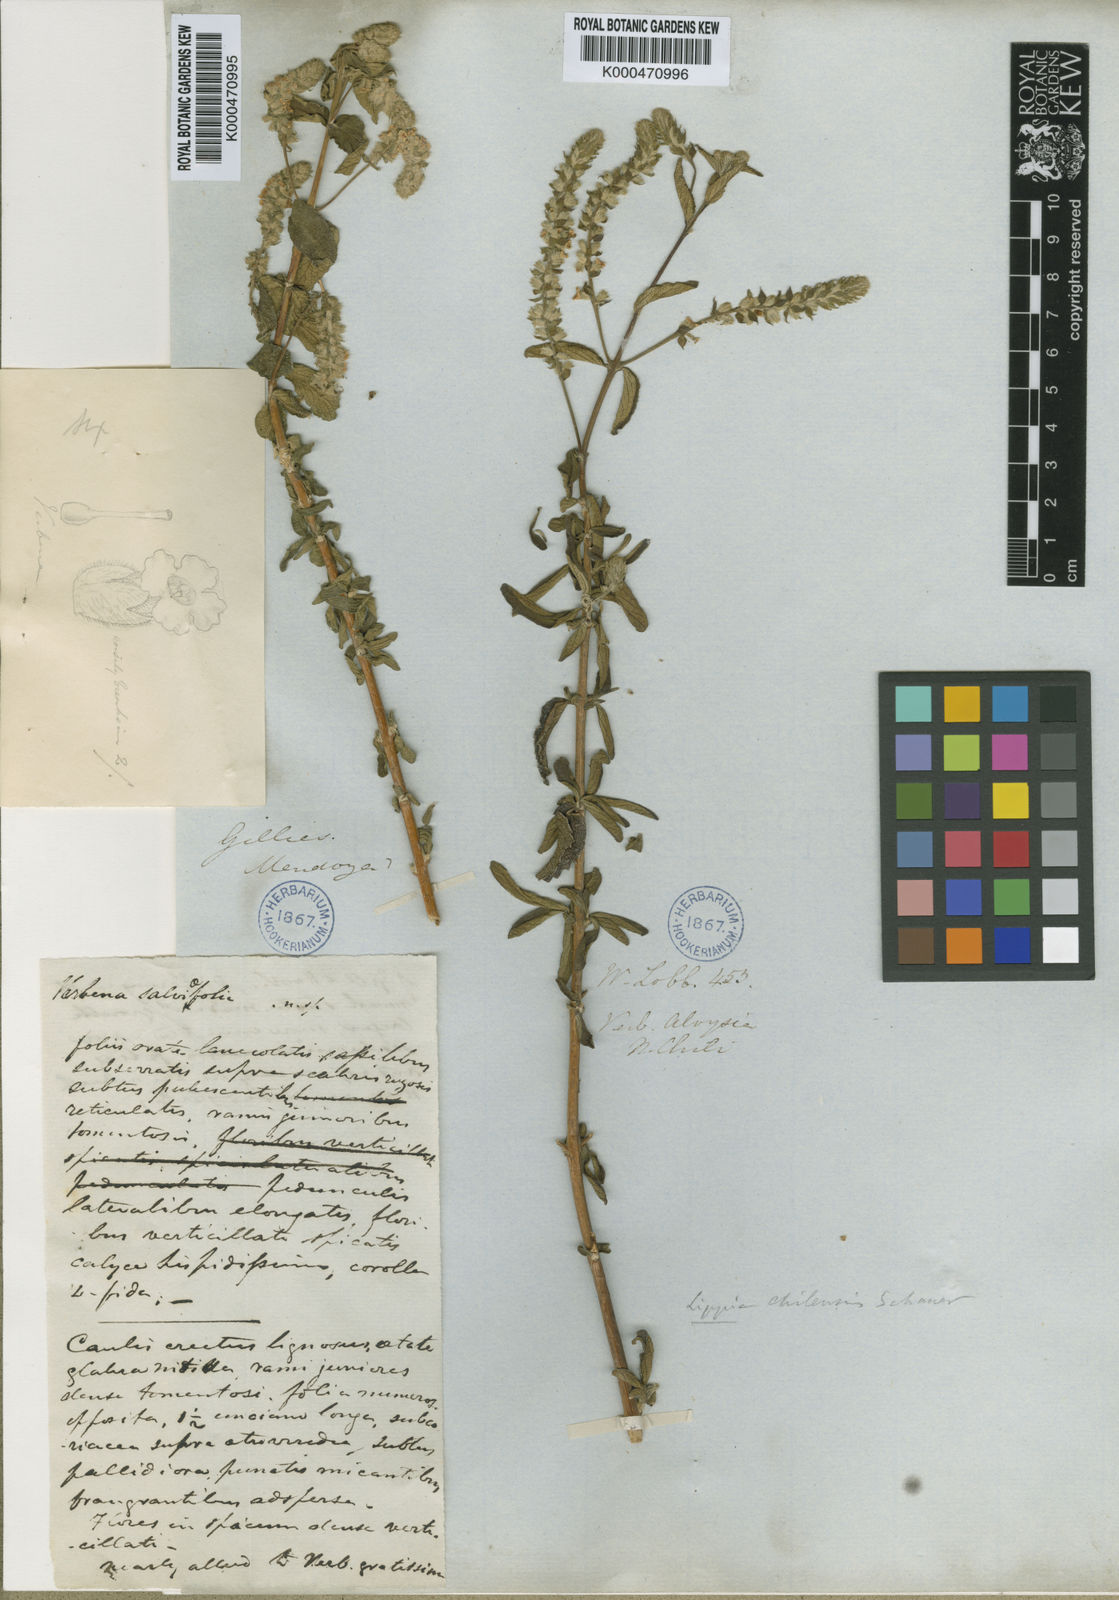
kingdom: Plantae
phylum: Tracheophyta
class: Magnoliopsida
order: Lamiales
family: Verbenaceae
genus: Aloysia
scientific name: Aloysia salviifolia
